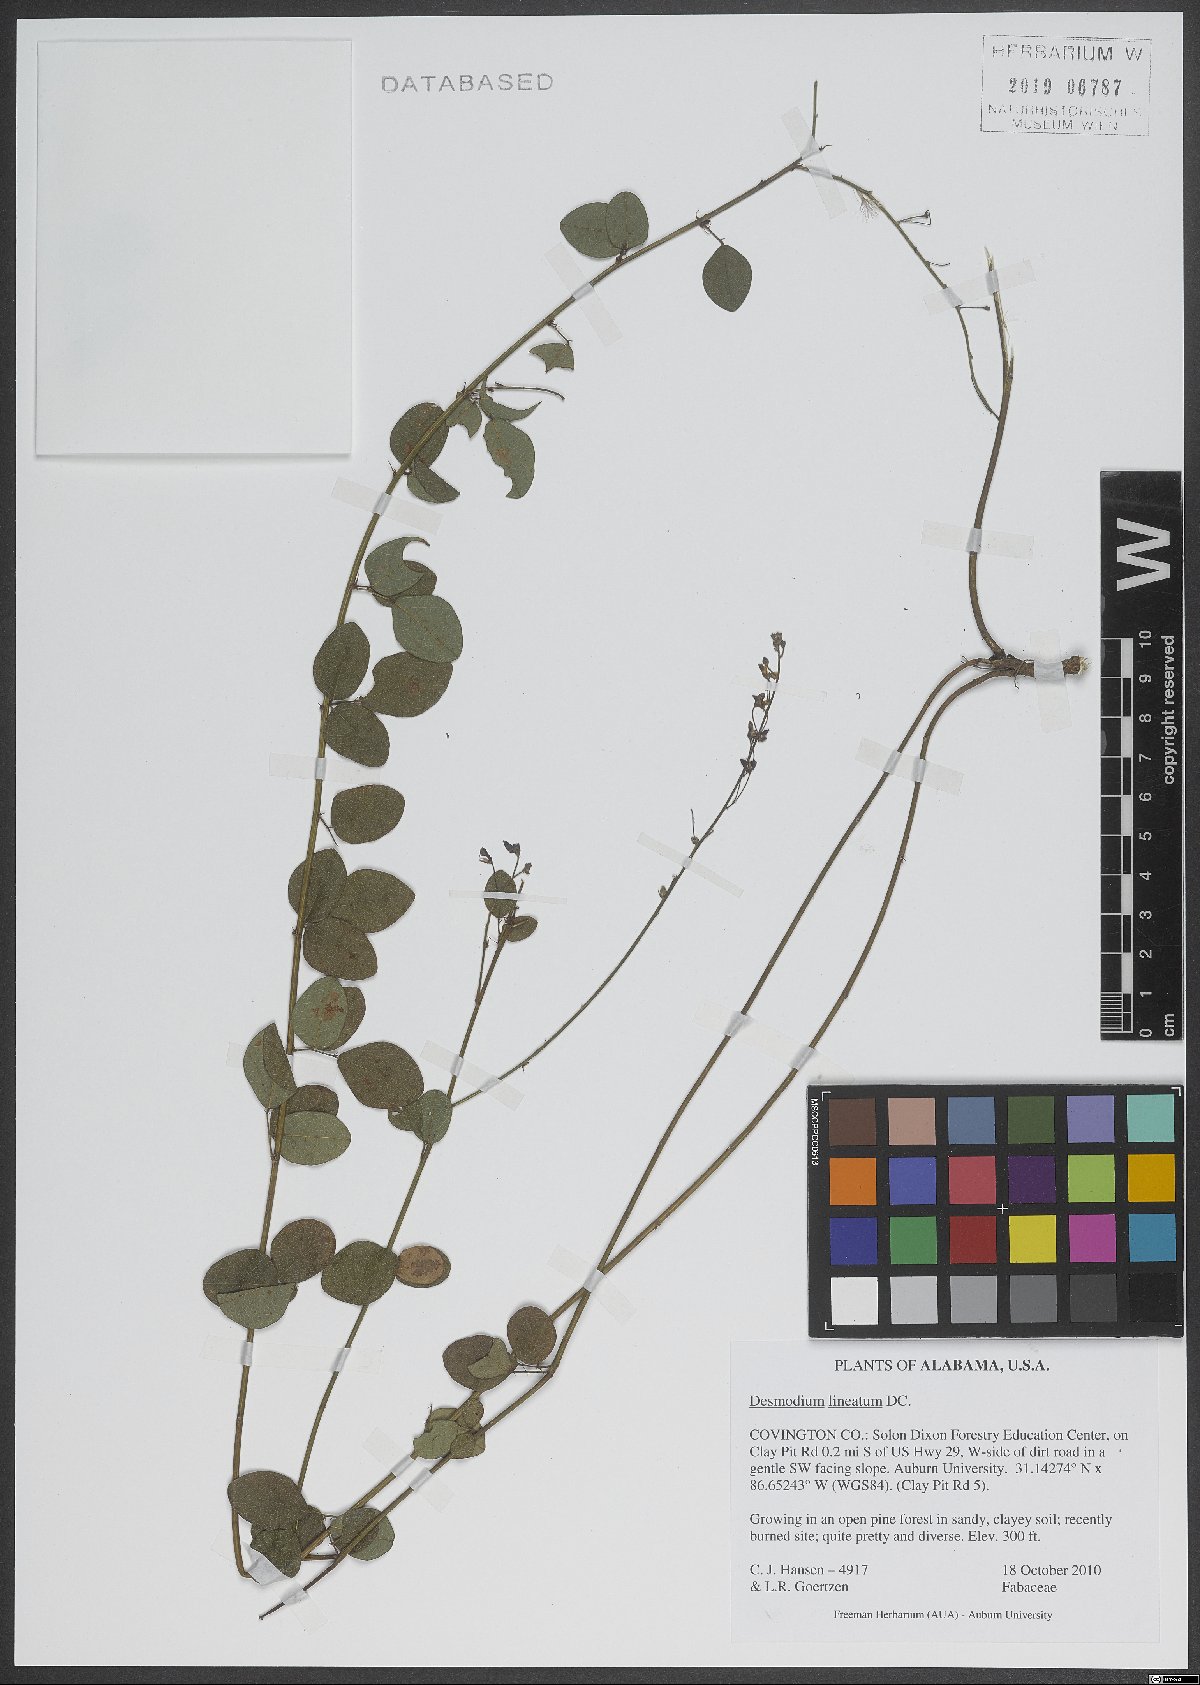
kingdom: Plantae
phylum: Tracheophyta
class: Magnoliopsida
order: Fabales
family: Fabaceae
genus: Desmodium
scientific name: Desmodium lineatum
